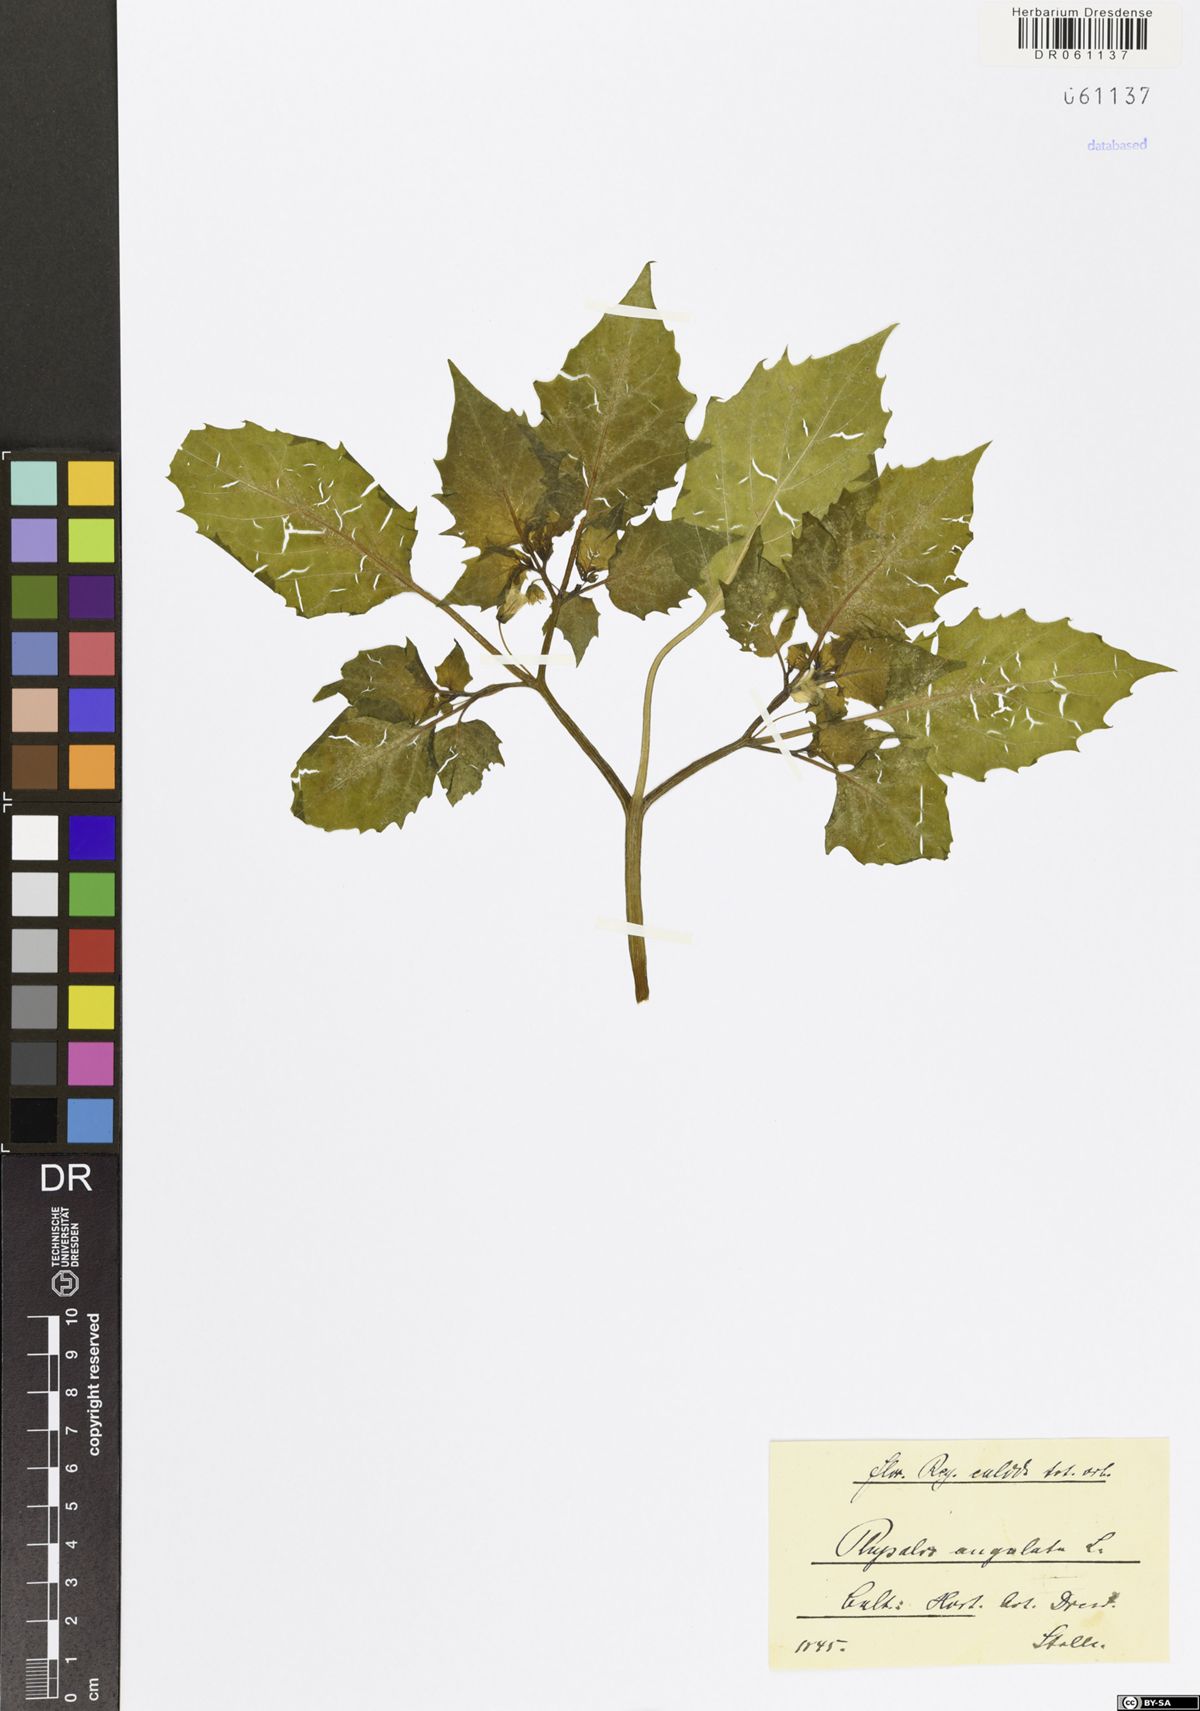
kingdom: Plantae
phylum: Tracheophyta
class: Magnoliopsida
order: Solanales
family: Solanaceae
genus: Physalis
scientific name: Physalis angulata
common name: Angular winter-cherry
